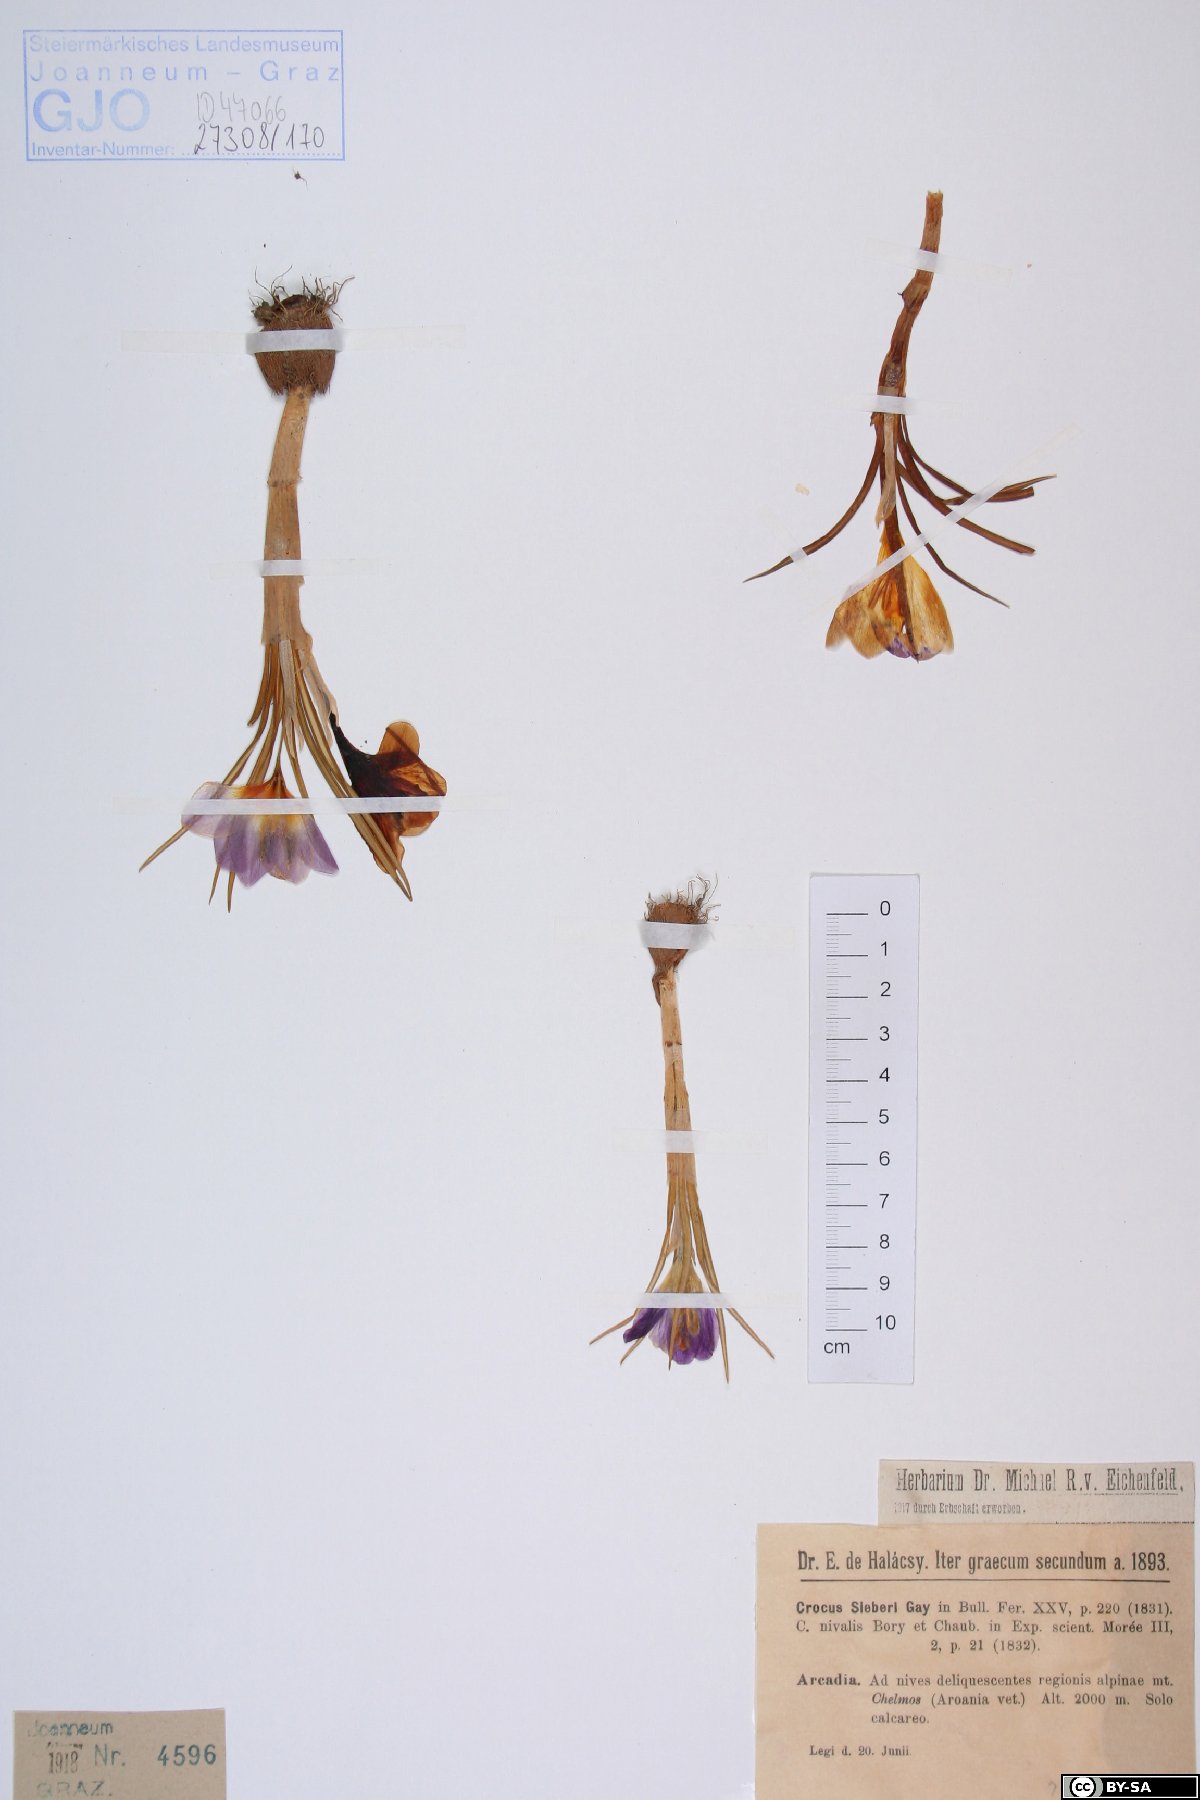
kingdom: Plantae
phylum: Tracheophyta
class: Liliopsida
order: Asparagales
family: Iridaceae
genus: Crocus
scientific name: Crocus sieberi
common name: Sieber's crocus
